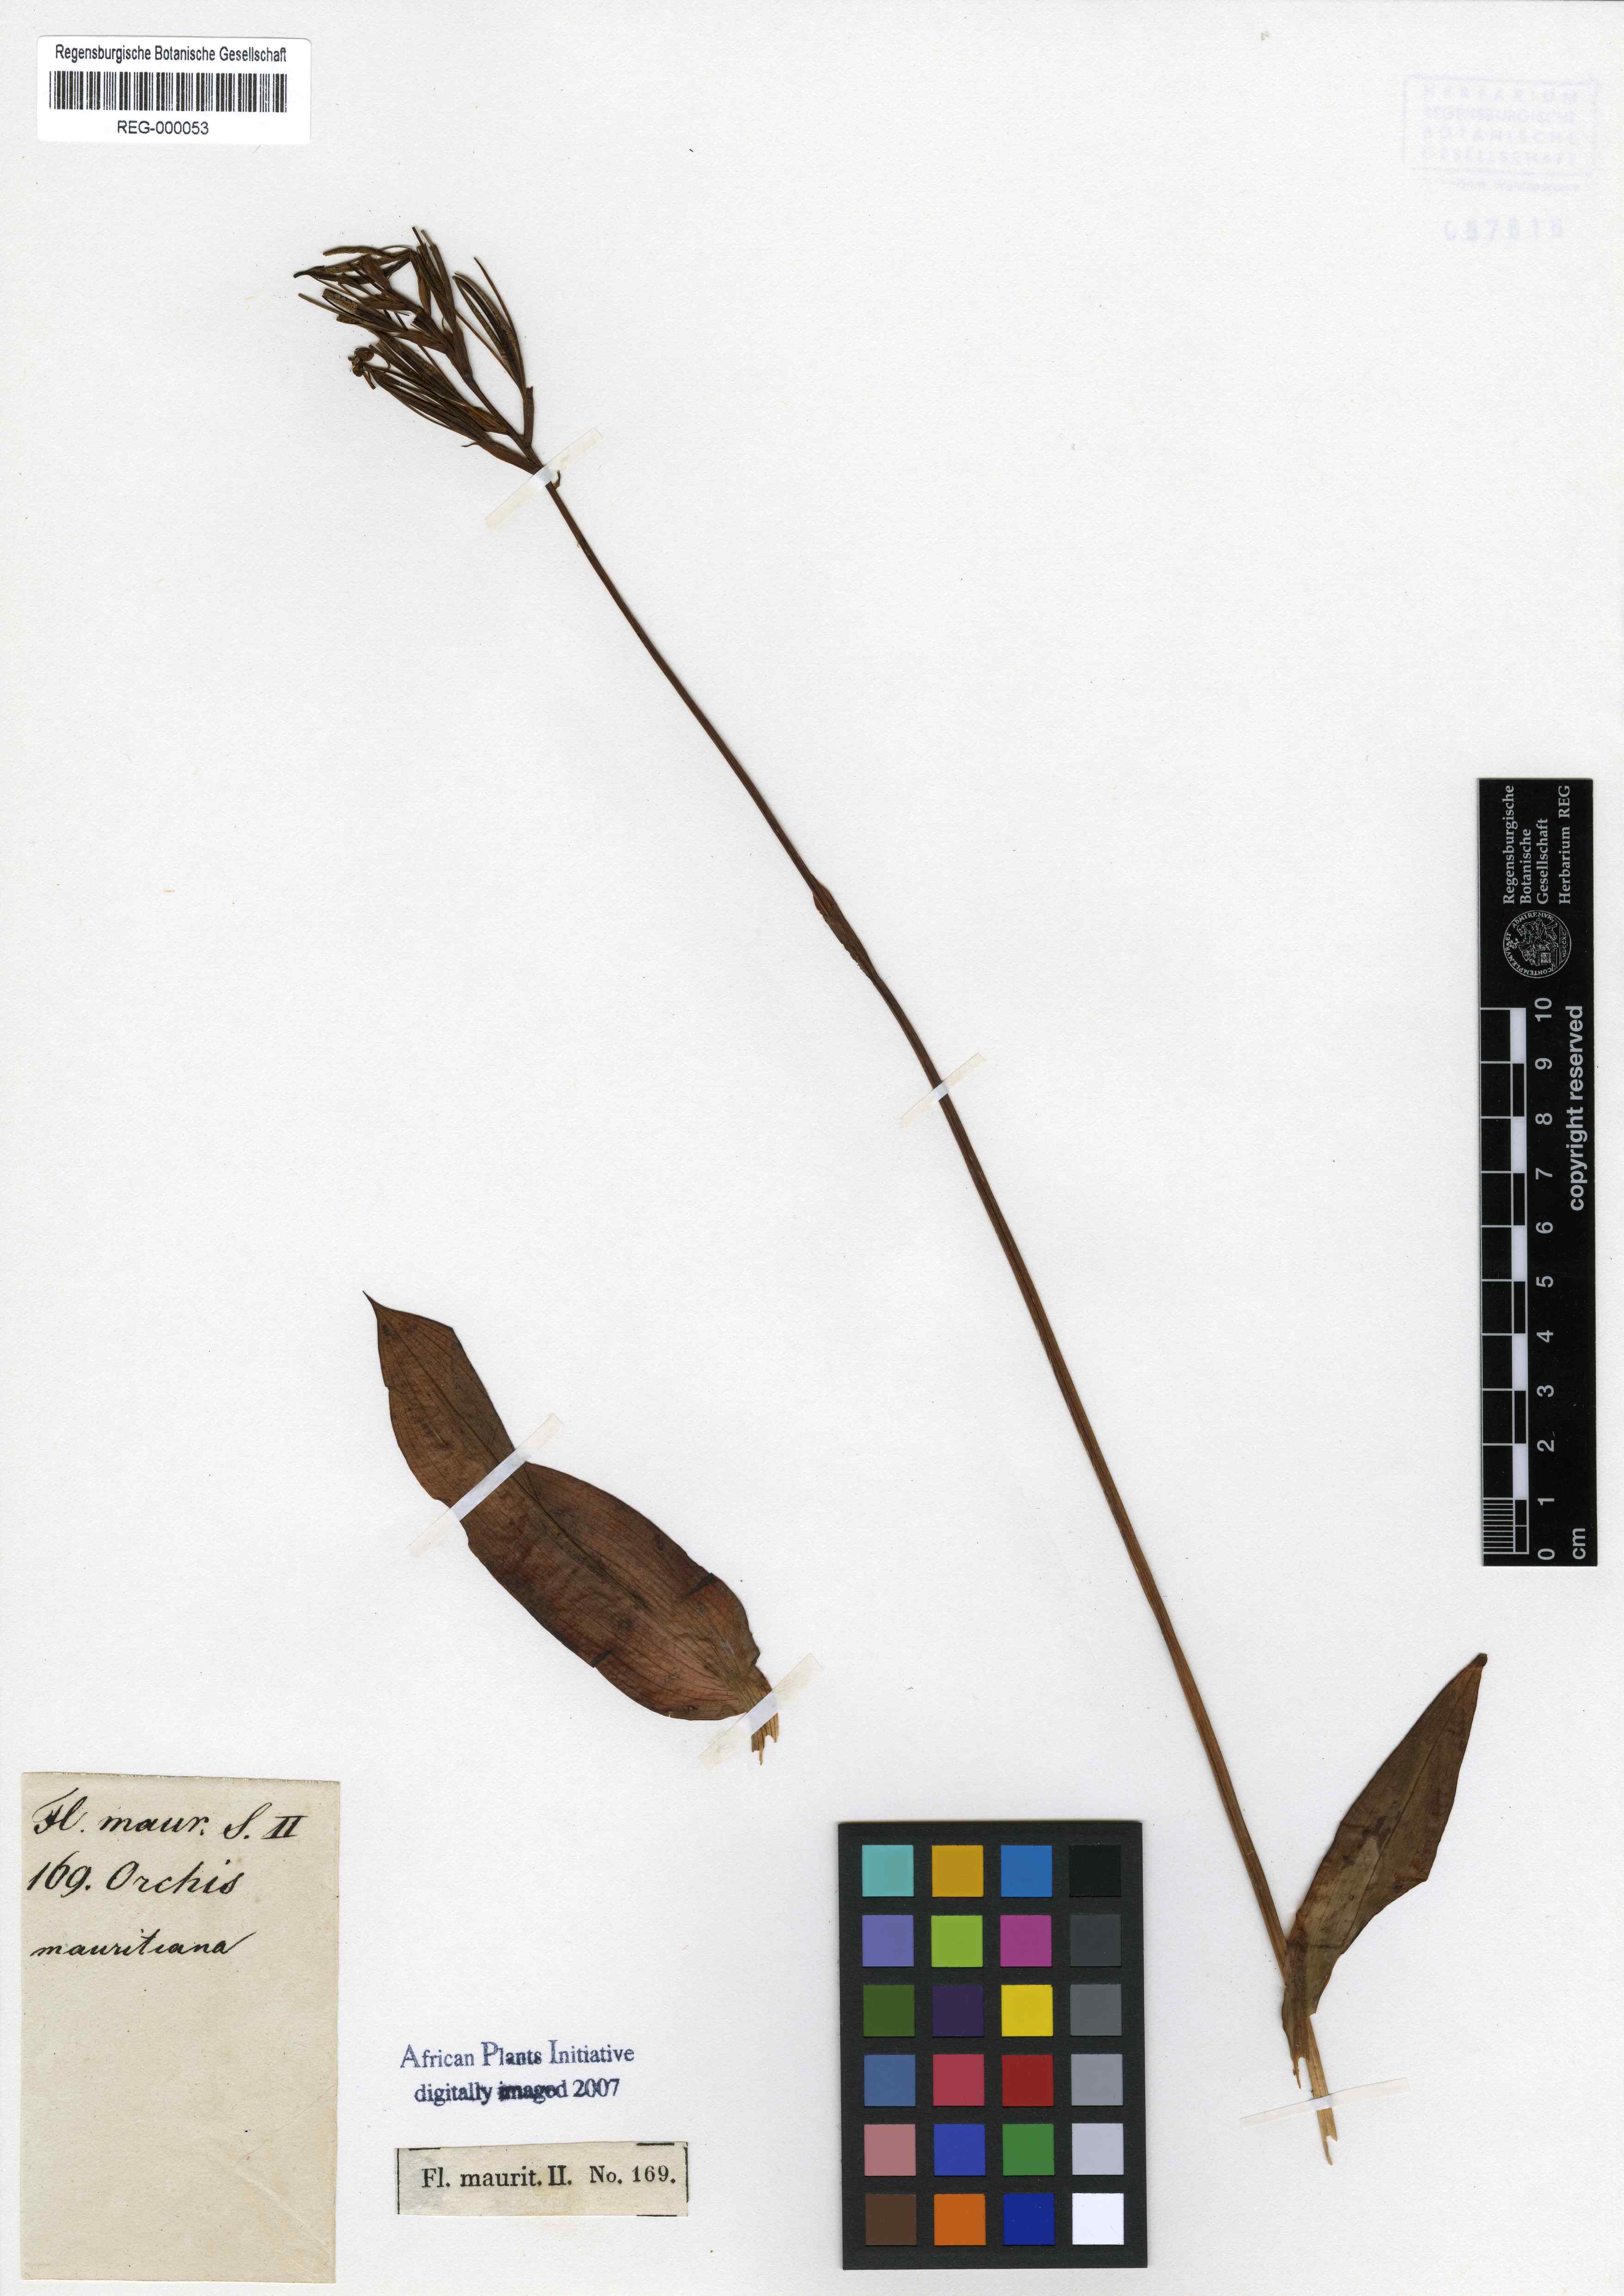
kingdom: Plantae
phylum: Tracheophyta
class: Liliopsida
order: Asparagales
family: Orchidaceae
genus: Cynorkis
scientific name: Cynorkis fastigiata
